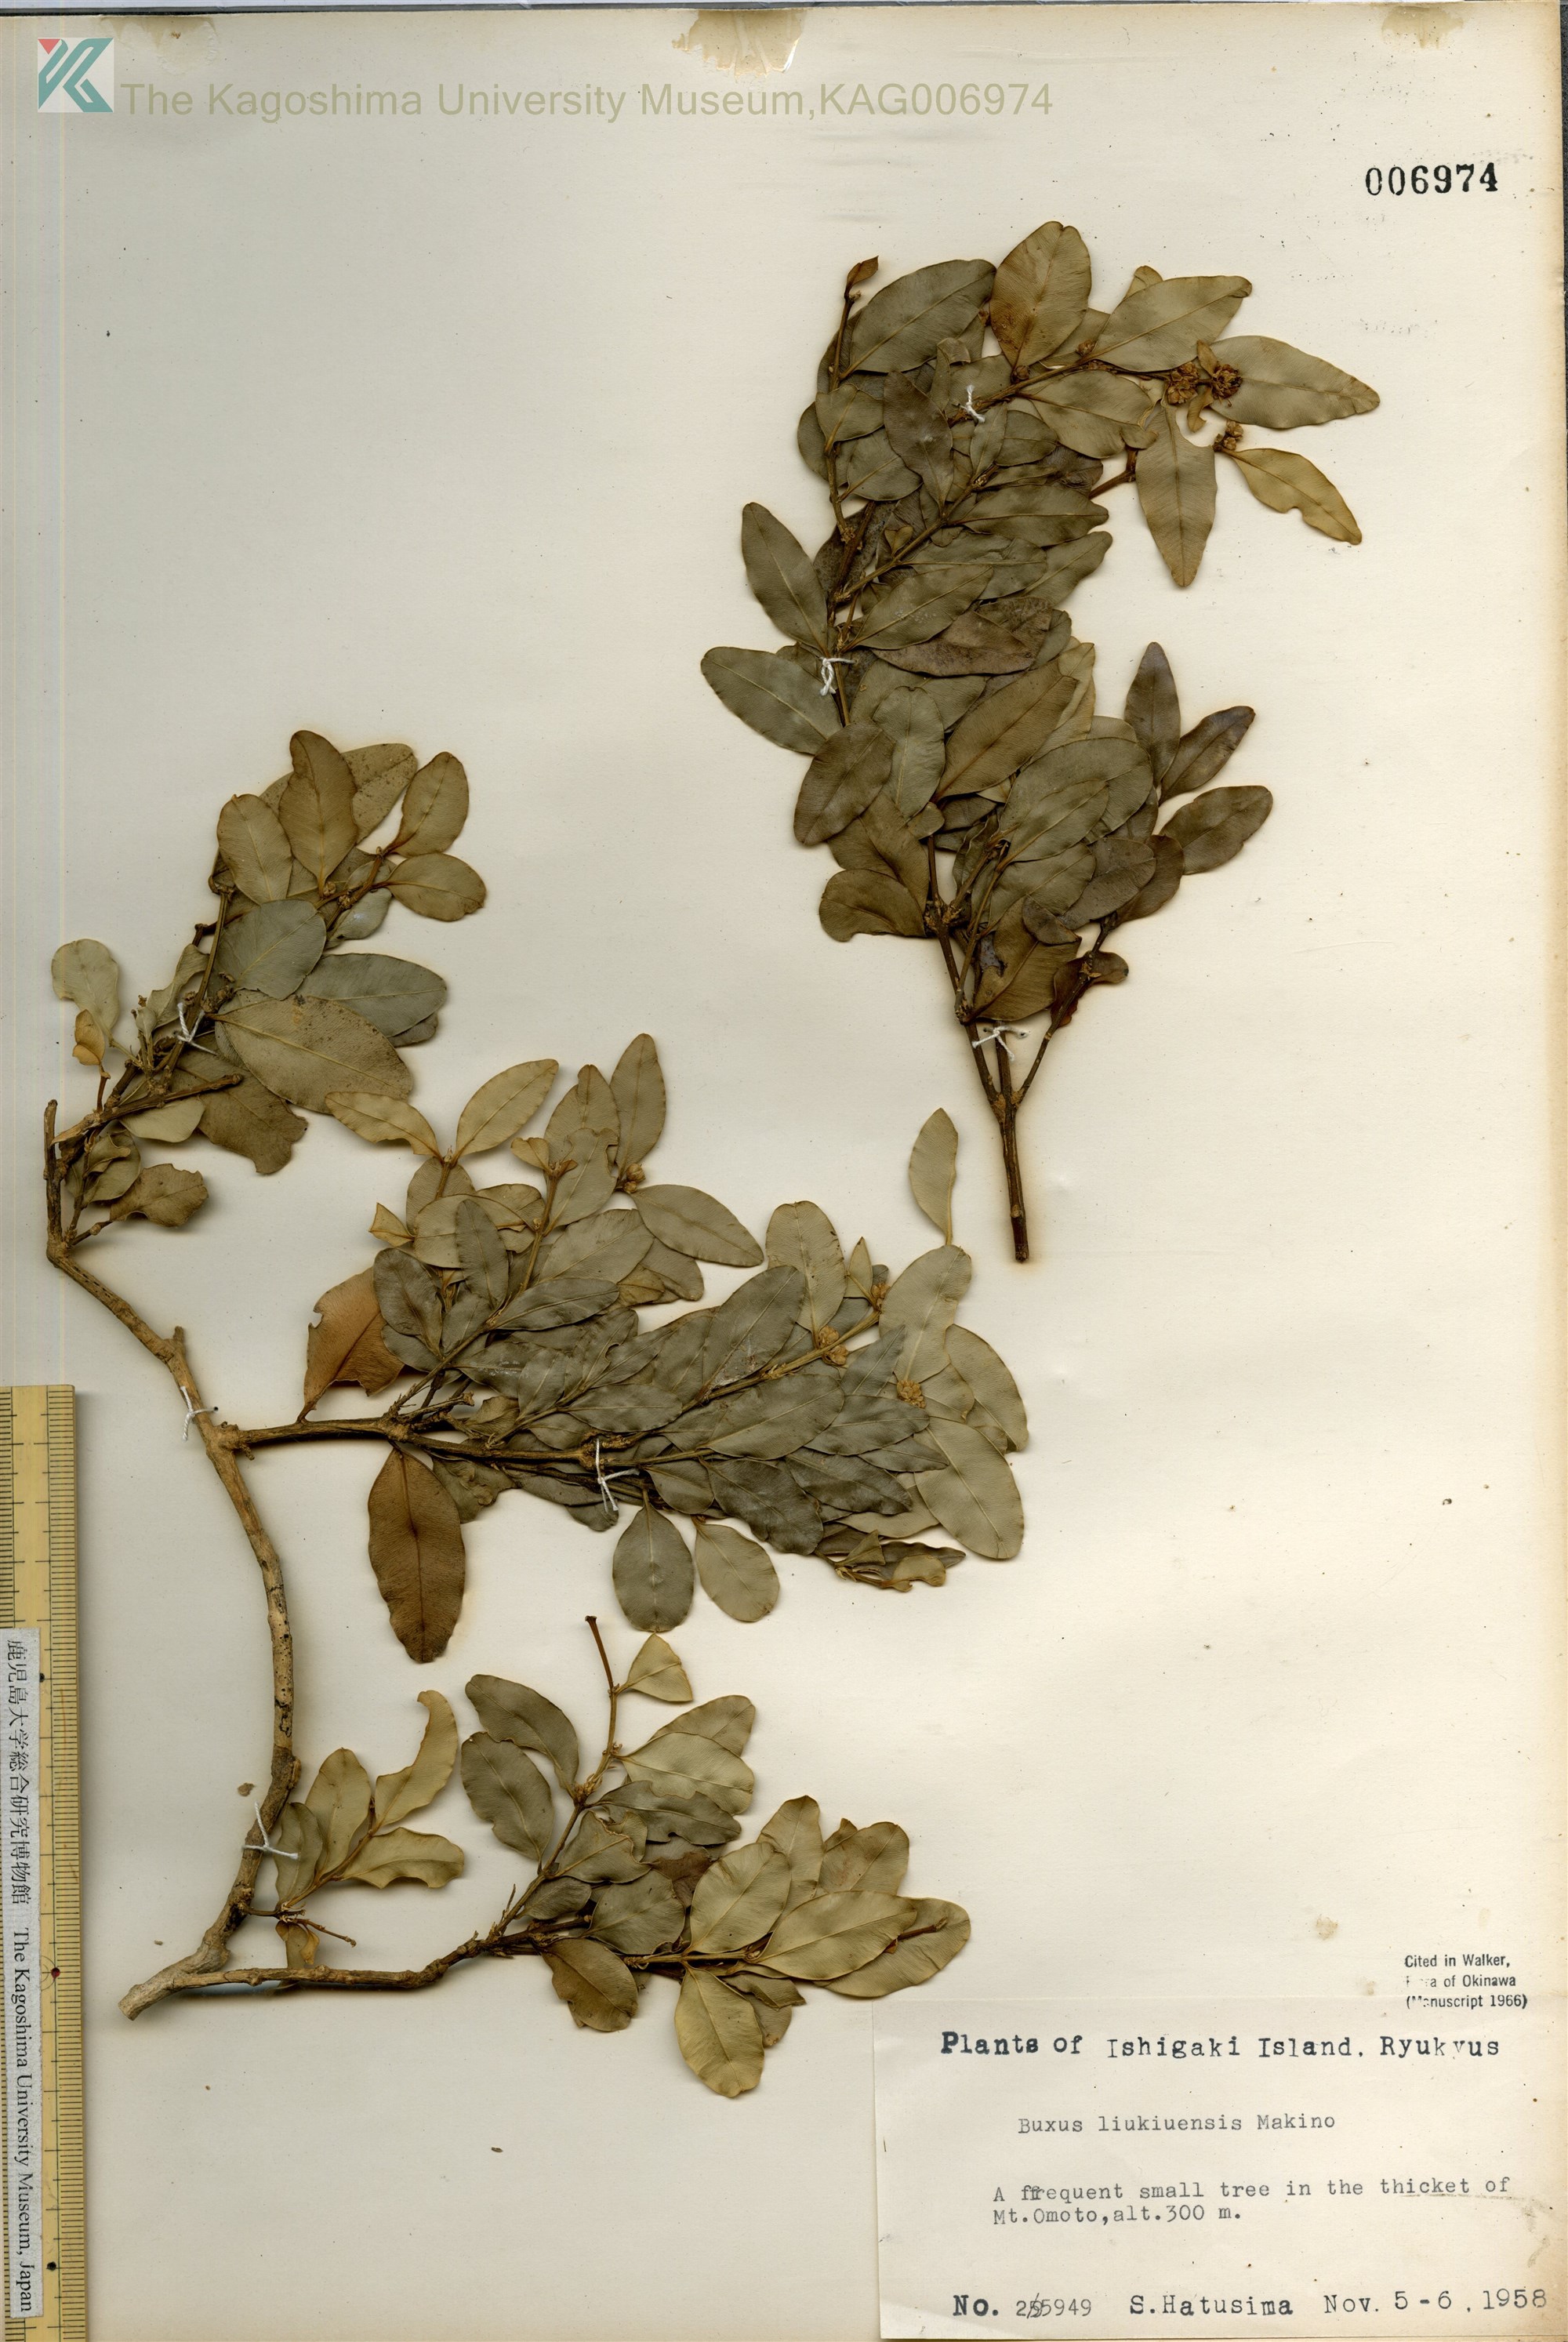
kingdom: Plantae
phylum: Tracheophyta
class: Magnoliopsida
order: Buxales
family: Buxaceae
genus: Buxus
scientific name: Buxus liukiuensis
